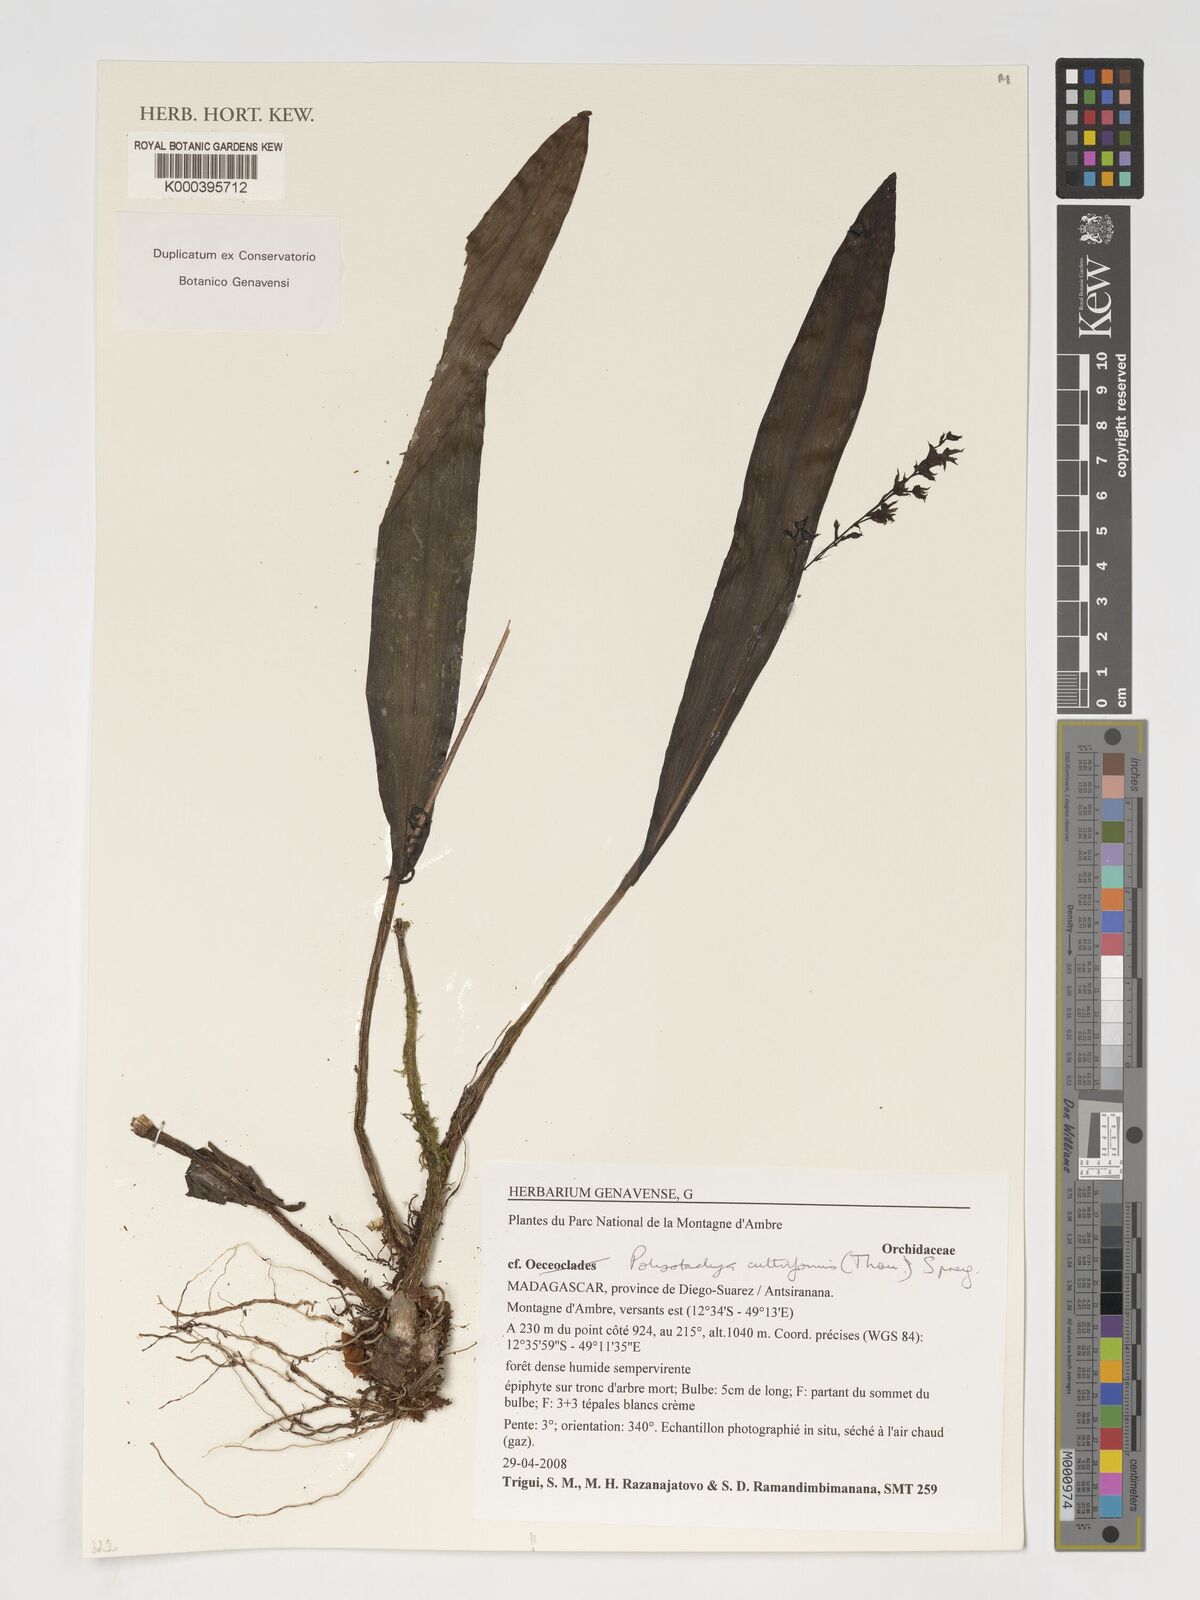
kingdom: Plantae
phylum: Tracheophyta
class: Liliopsida
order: Asparagales
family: Orchidaceae
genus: Polystachya
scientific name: Polystachya cultriformis
